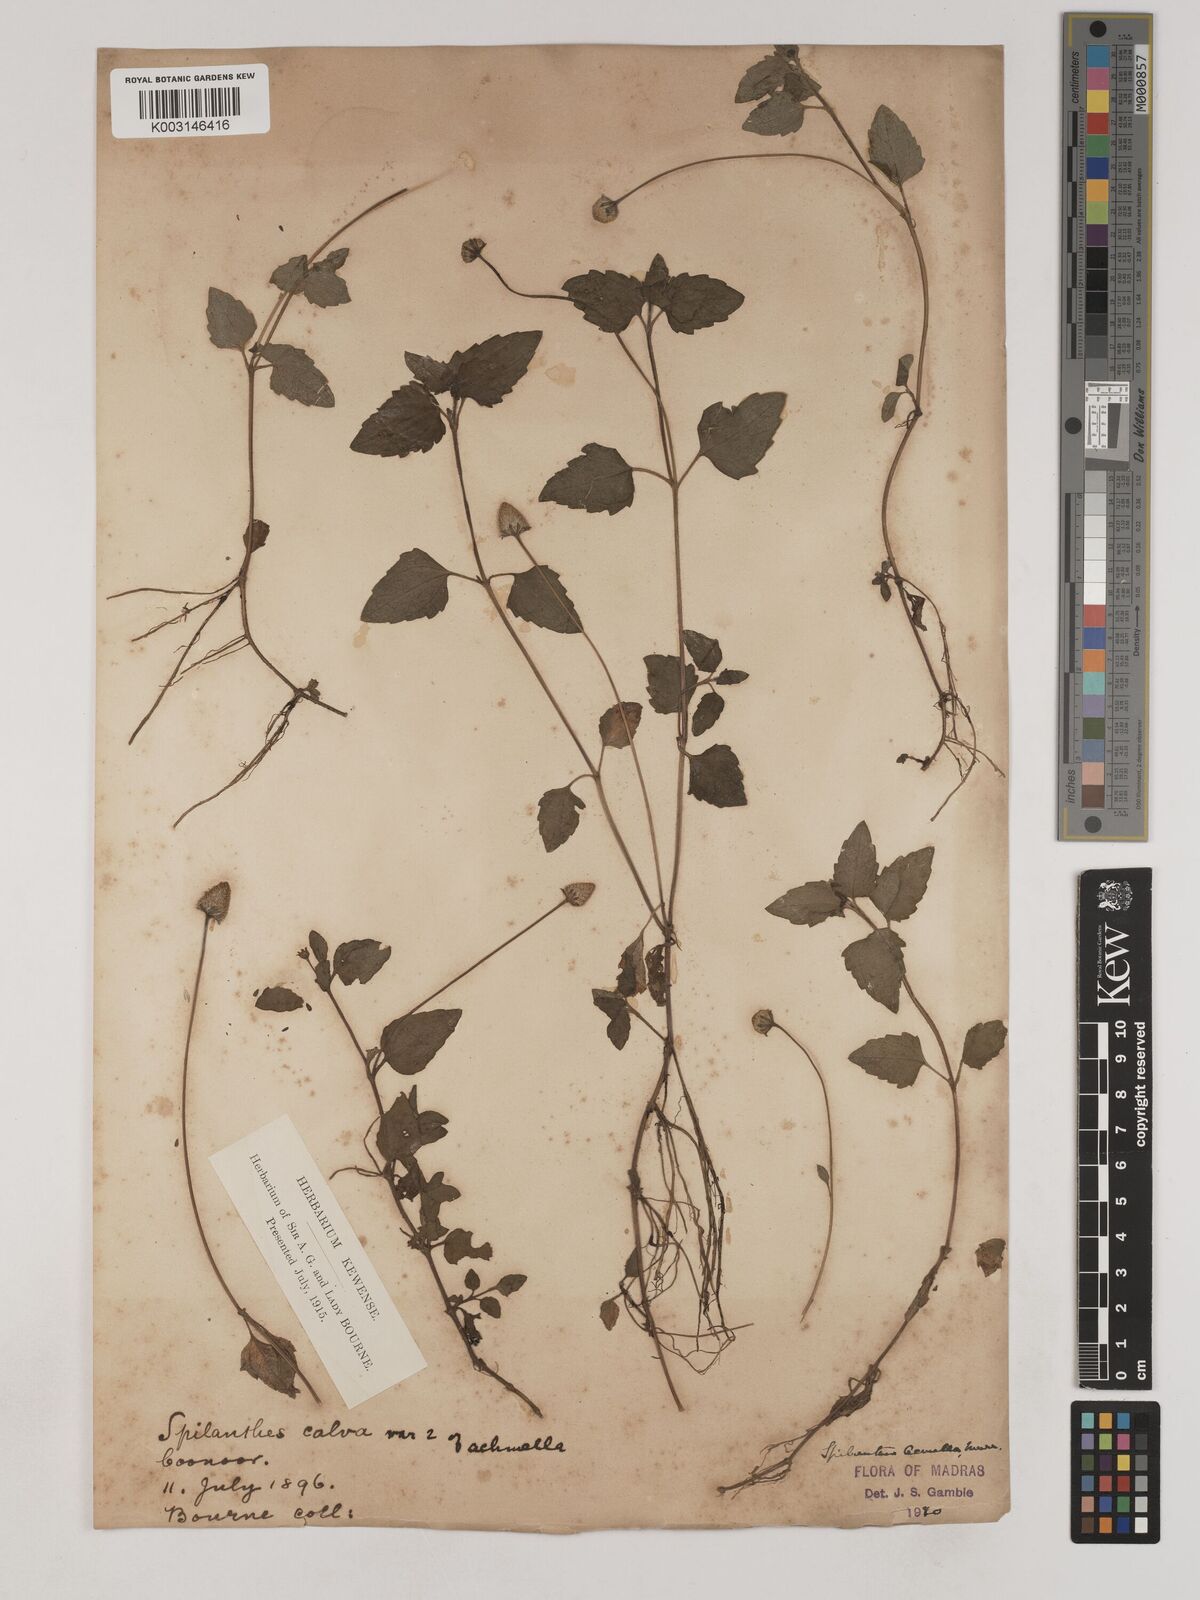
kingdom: Plantae
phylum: Tracheophyta
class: Magnoliopsida
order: Asterales
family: Asteraceae
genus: Acmella
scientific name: Acmella calva
